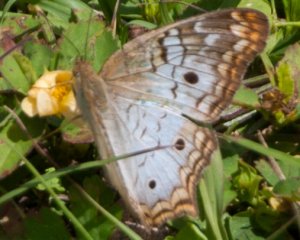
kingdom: Animalia
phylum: Arthropoda
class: Insecta
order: Lepidoptera
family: Nymphalidae
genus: Anartia
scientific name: Anartia jatrophae
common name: White Peacock
